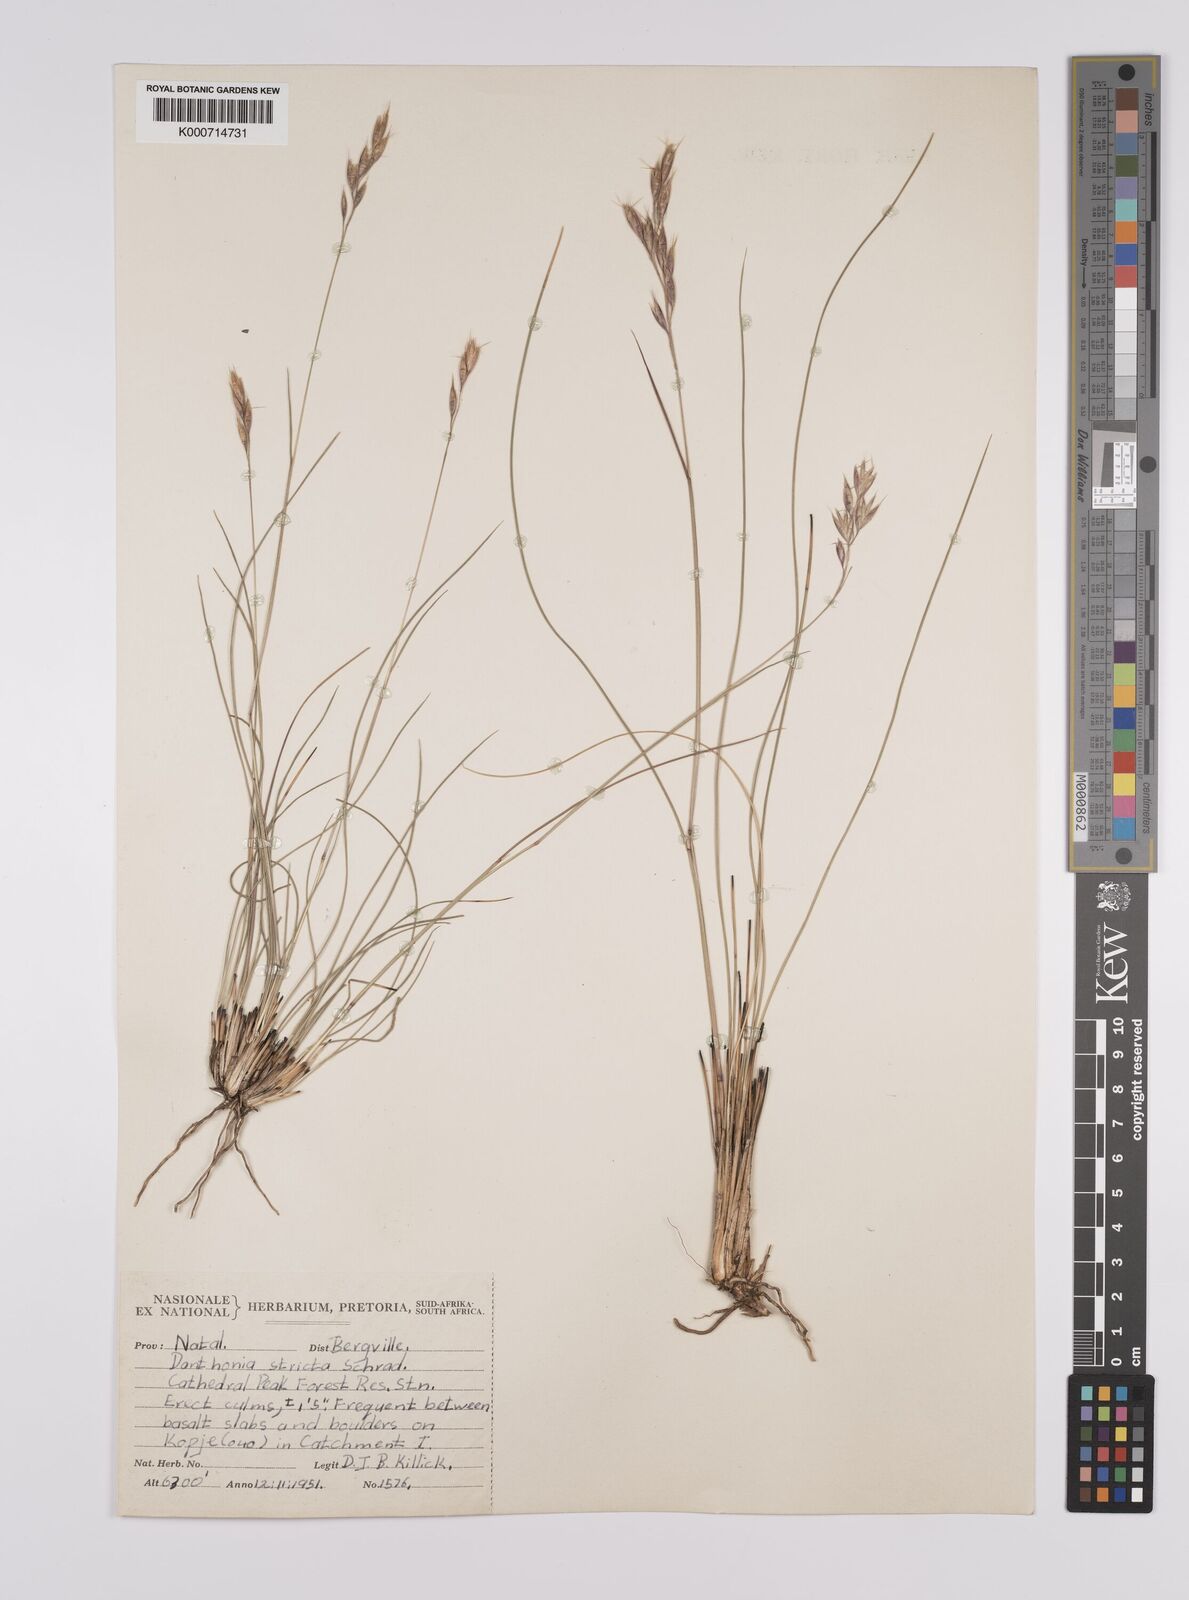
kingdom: Plantae
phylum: Tracheophyta
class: Liliopsida
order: Poales
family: Poaceae
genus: Rytidosperma
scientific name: Rytidosperma
